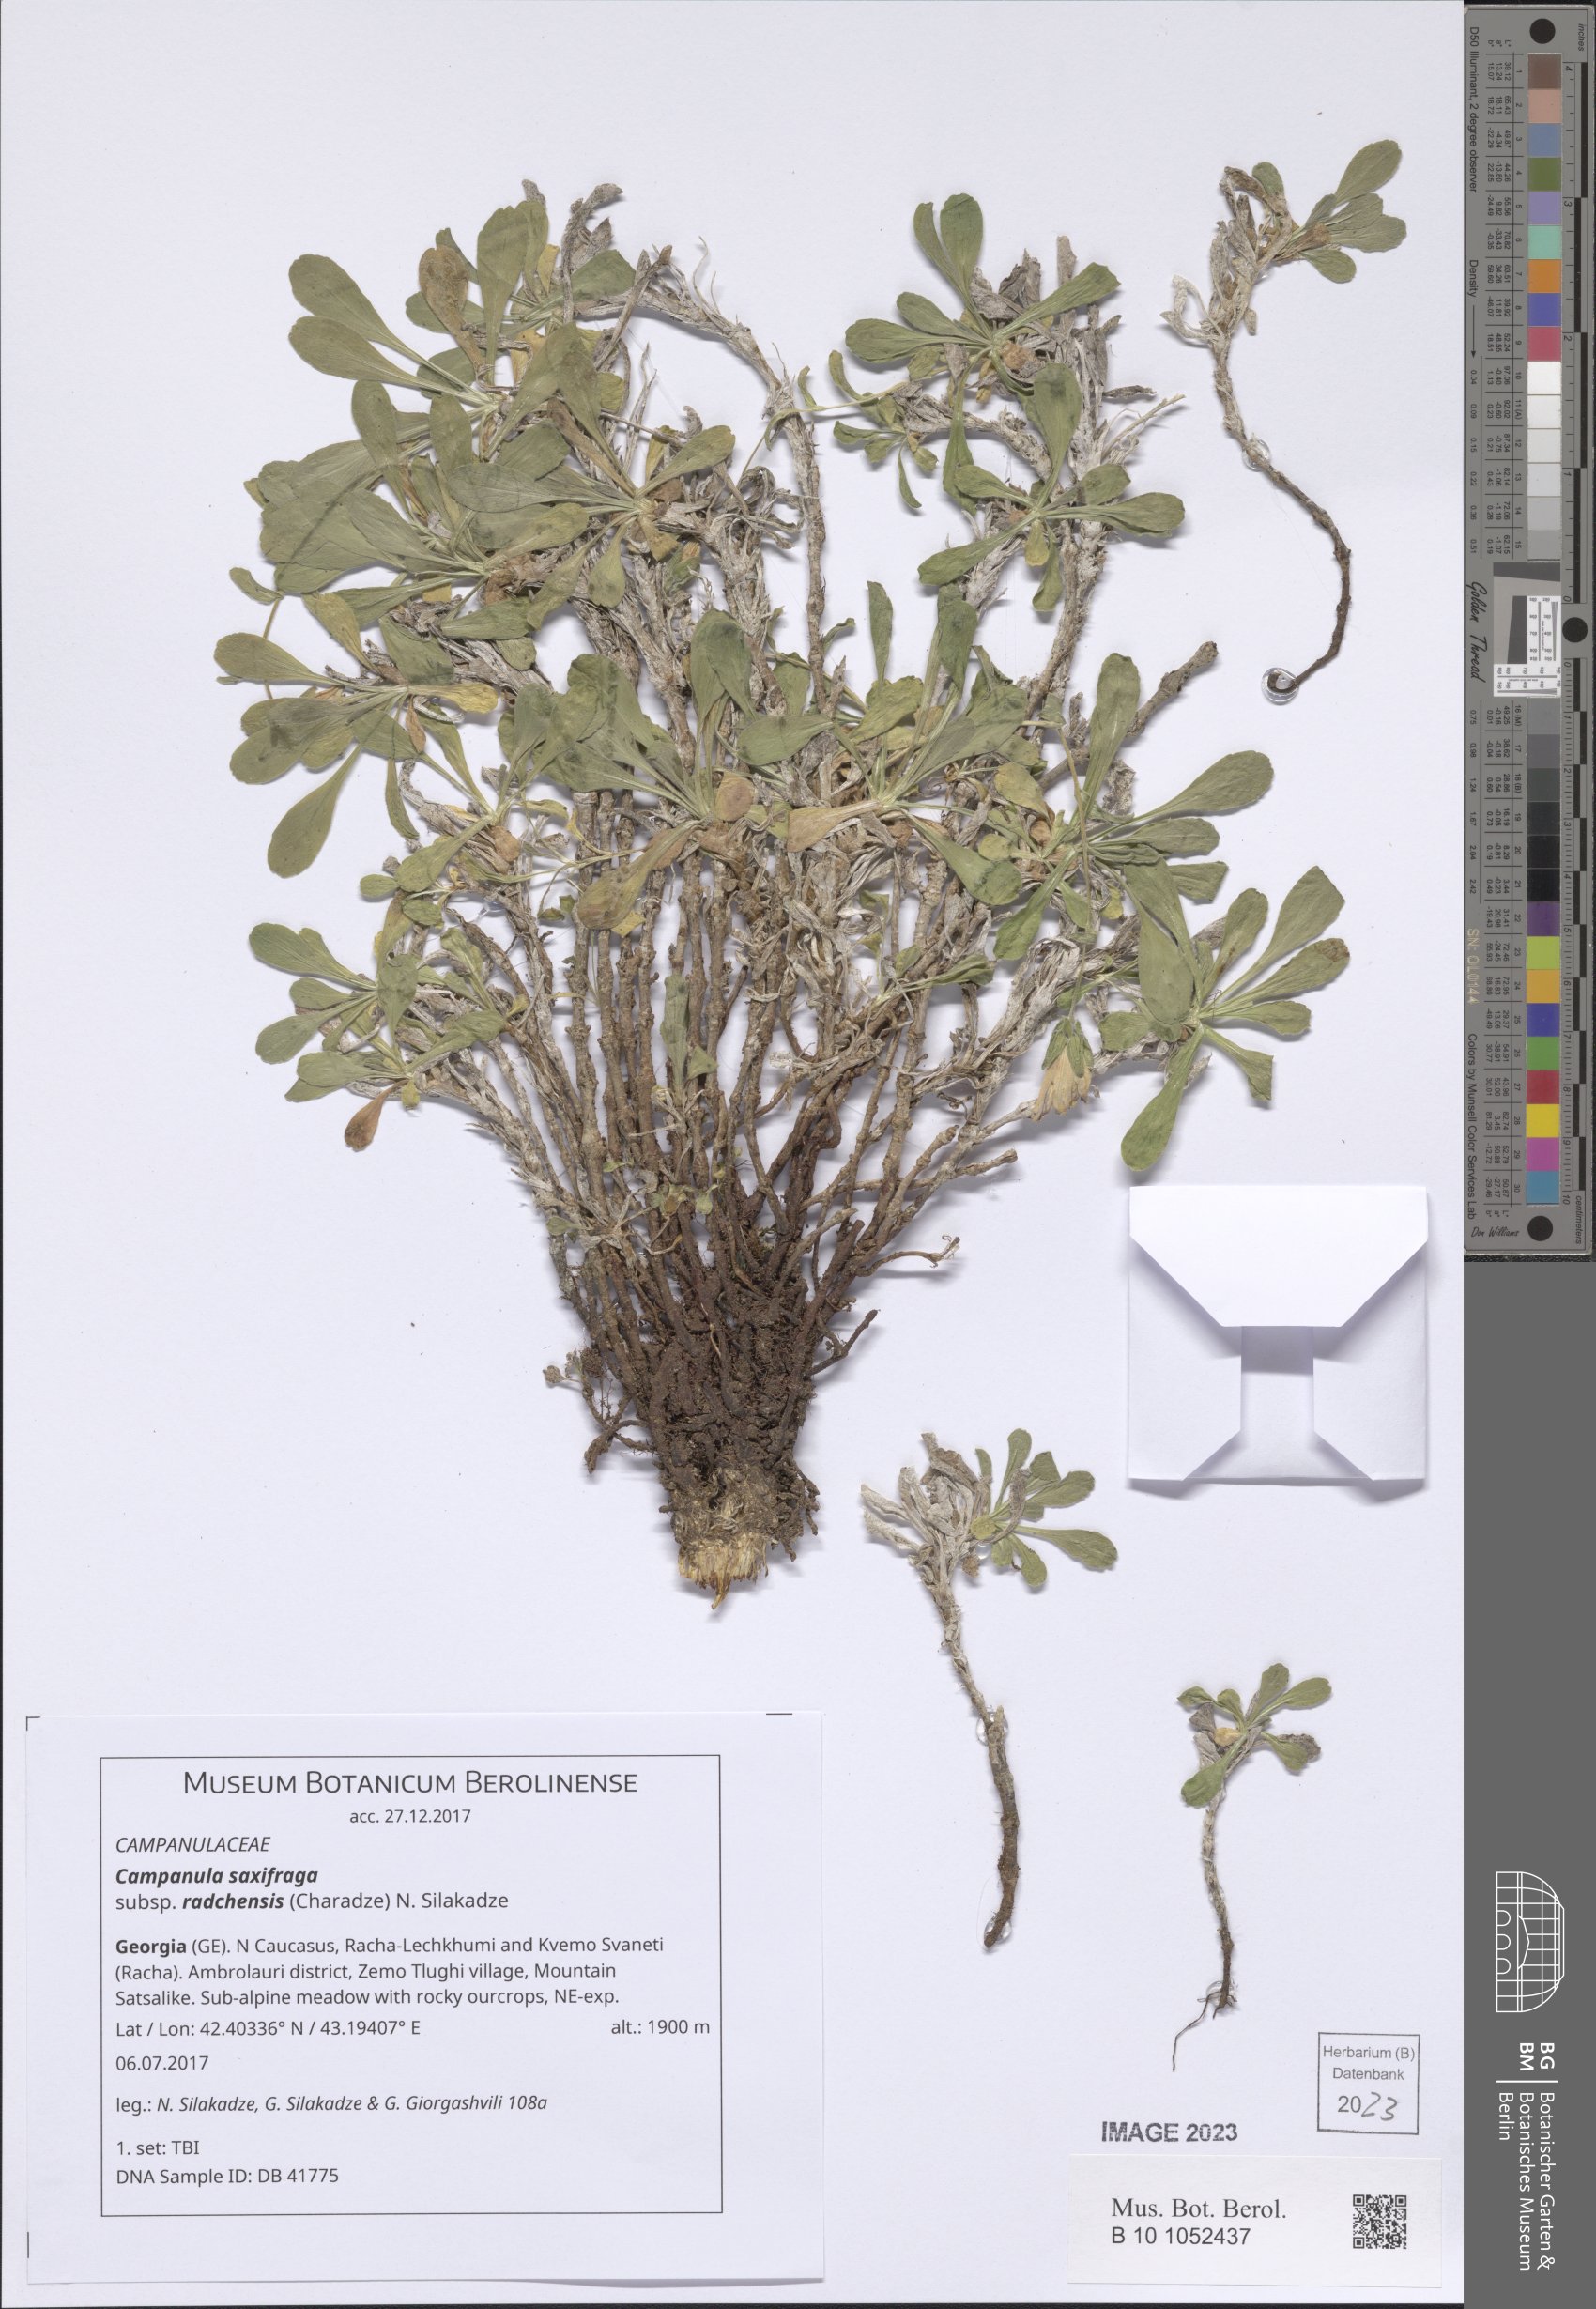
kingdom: Plantae
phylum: Tracheophyta
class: Magnoliopsida
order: Asterales
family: Campanulaceae
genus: Campanula
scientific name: Campanula saxifraga
